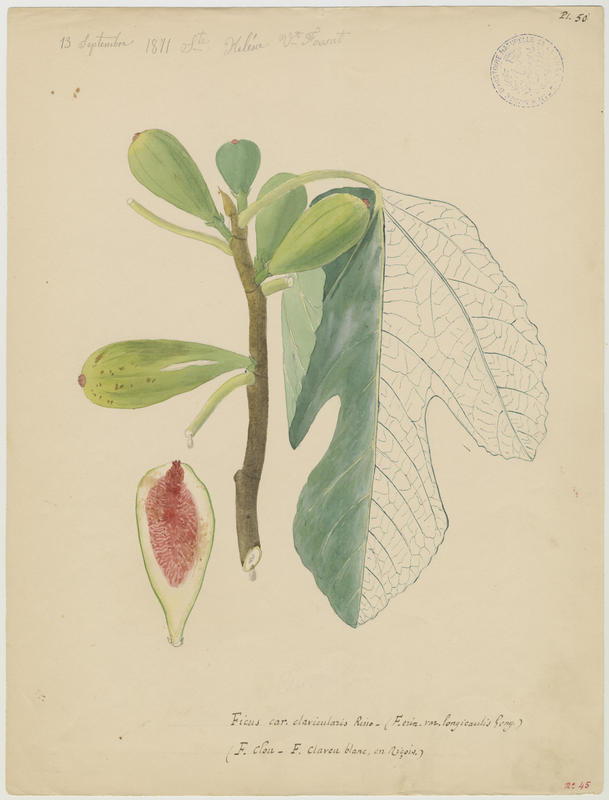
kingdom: Plantae
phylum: Tracheophyta
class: Magnoliopsida
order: Rosales
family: Moraceae
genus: Ficus
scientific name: Ficus carica
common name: Fig
